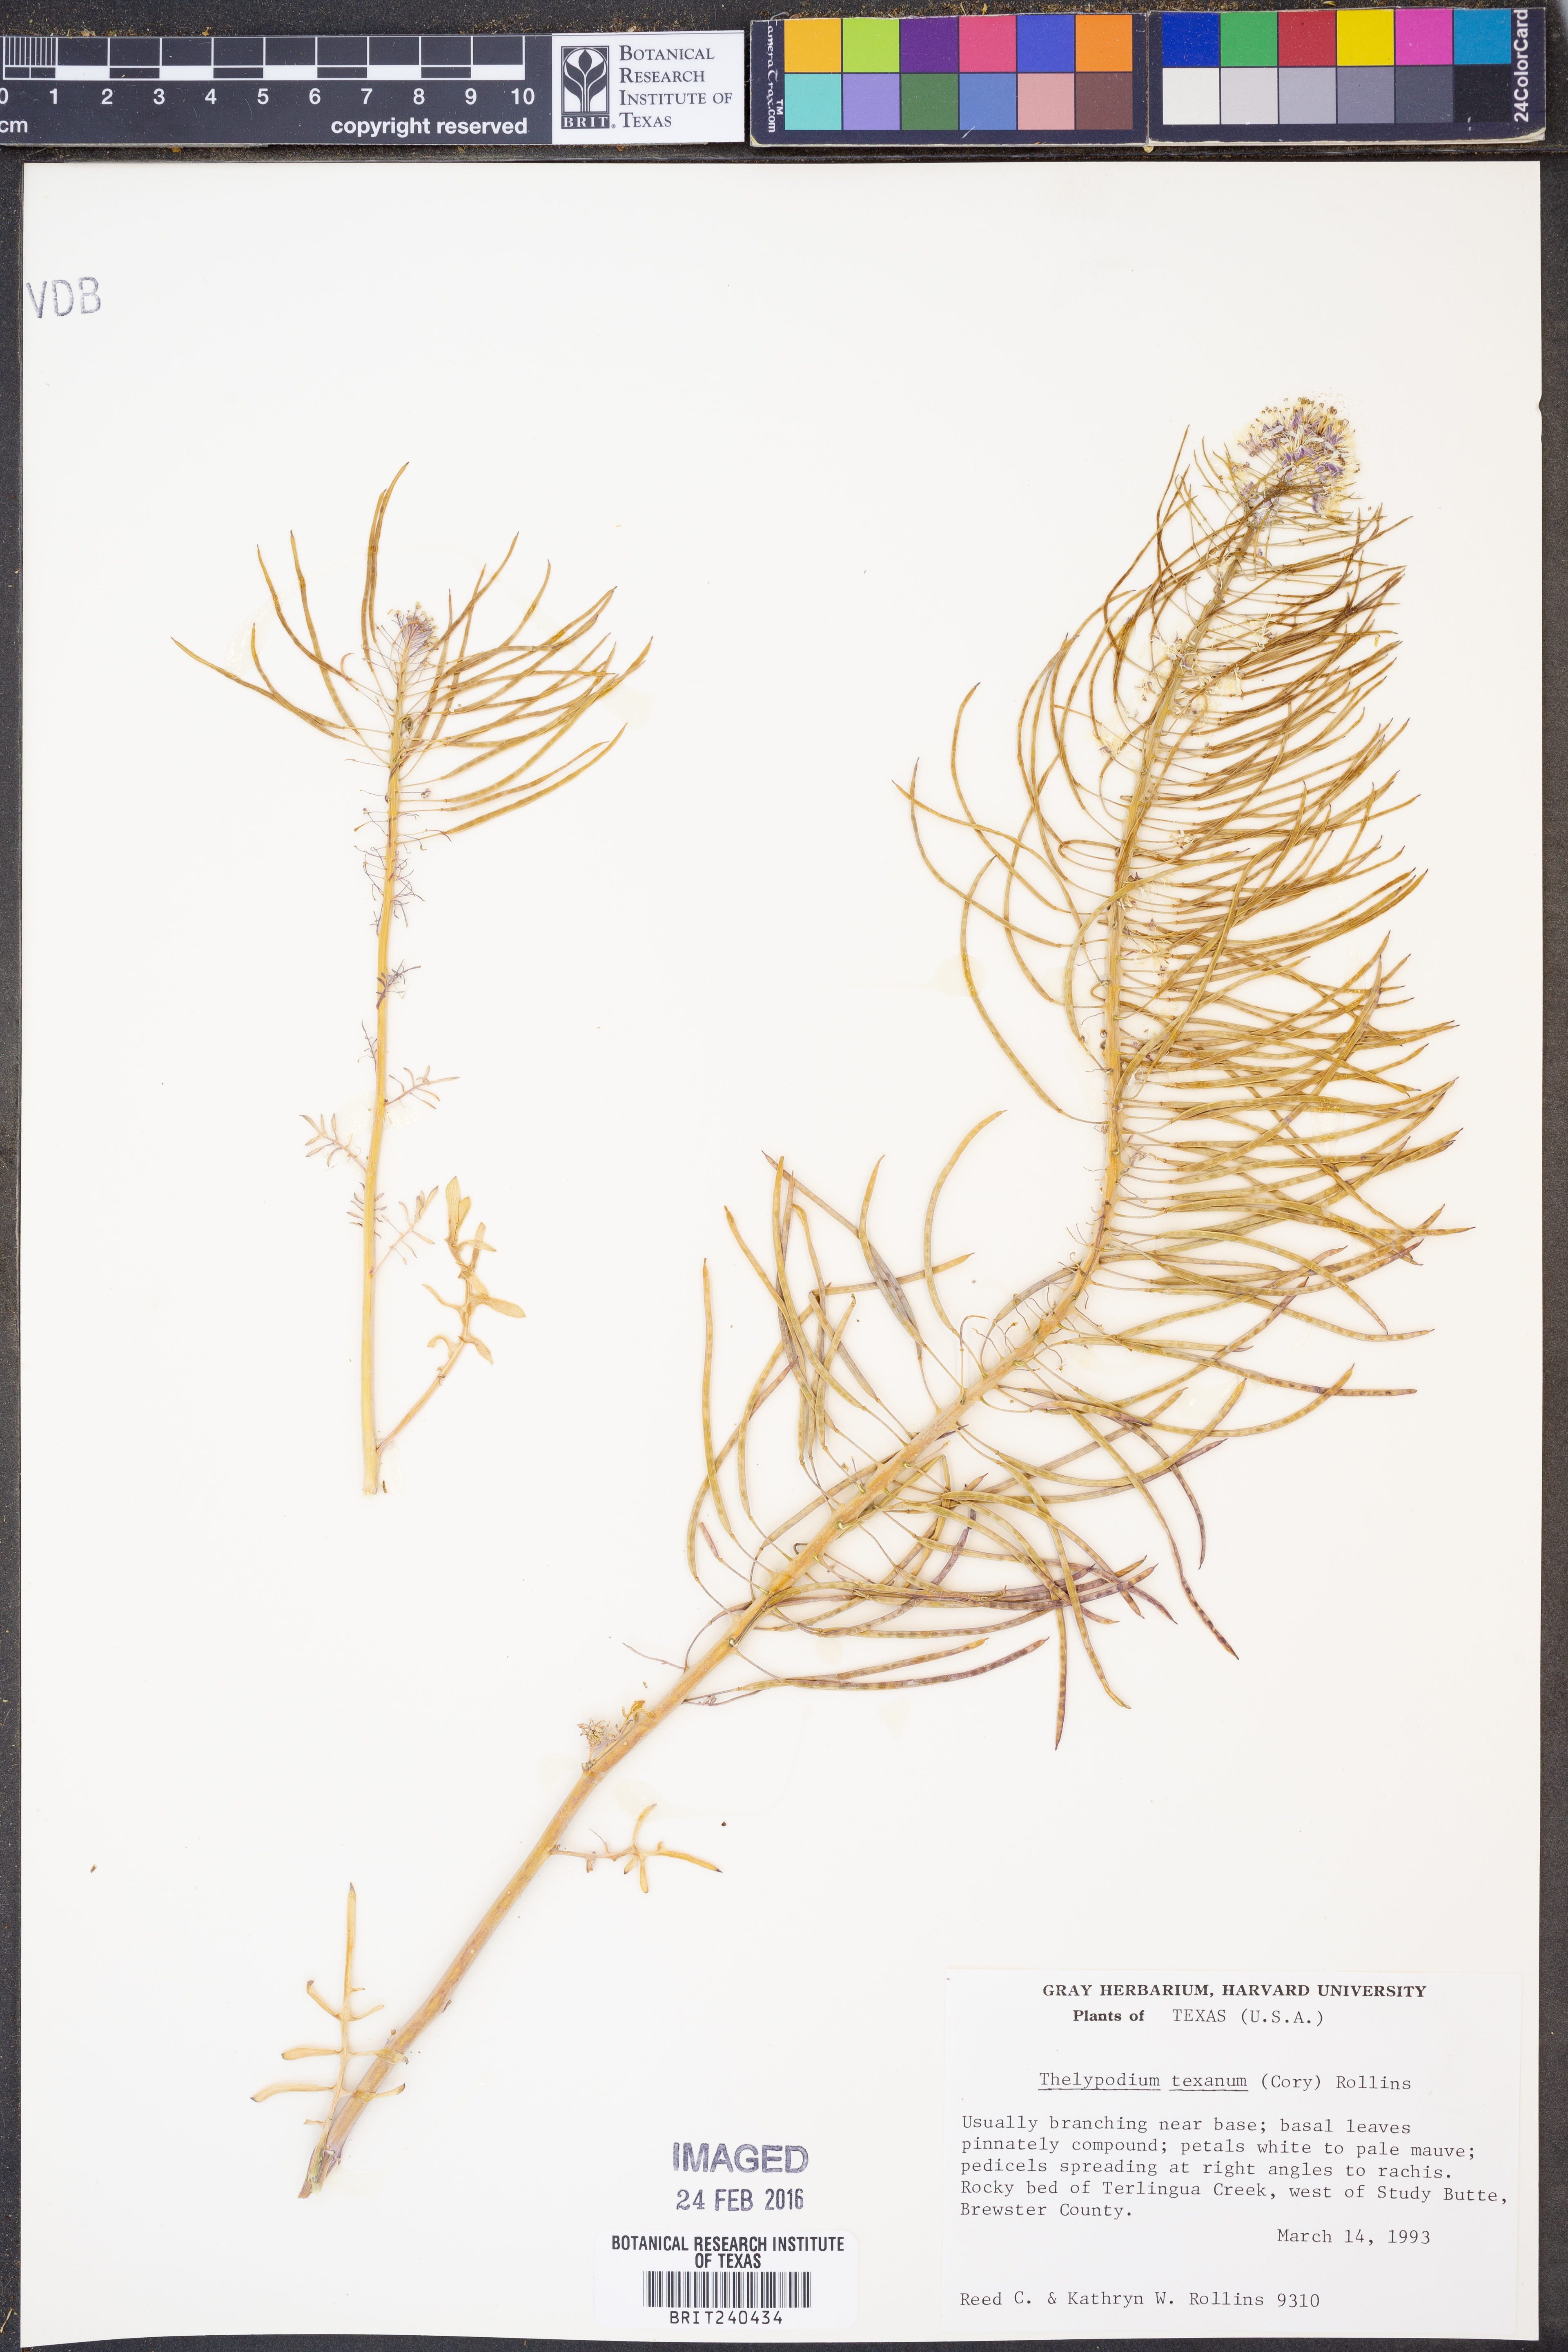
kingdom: Plantae
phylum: Tracheophyta
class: Magnoliopsida
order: Brassicales
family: Brassicaceae
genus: Thelypodium
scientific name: Thelypodium texanum
